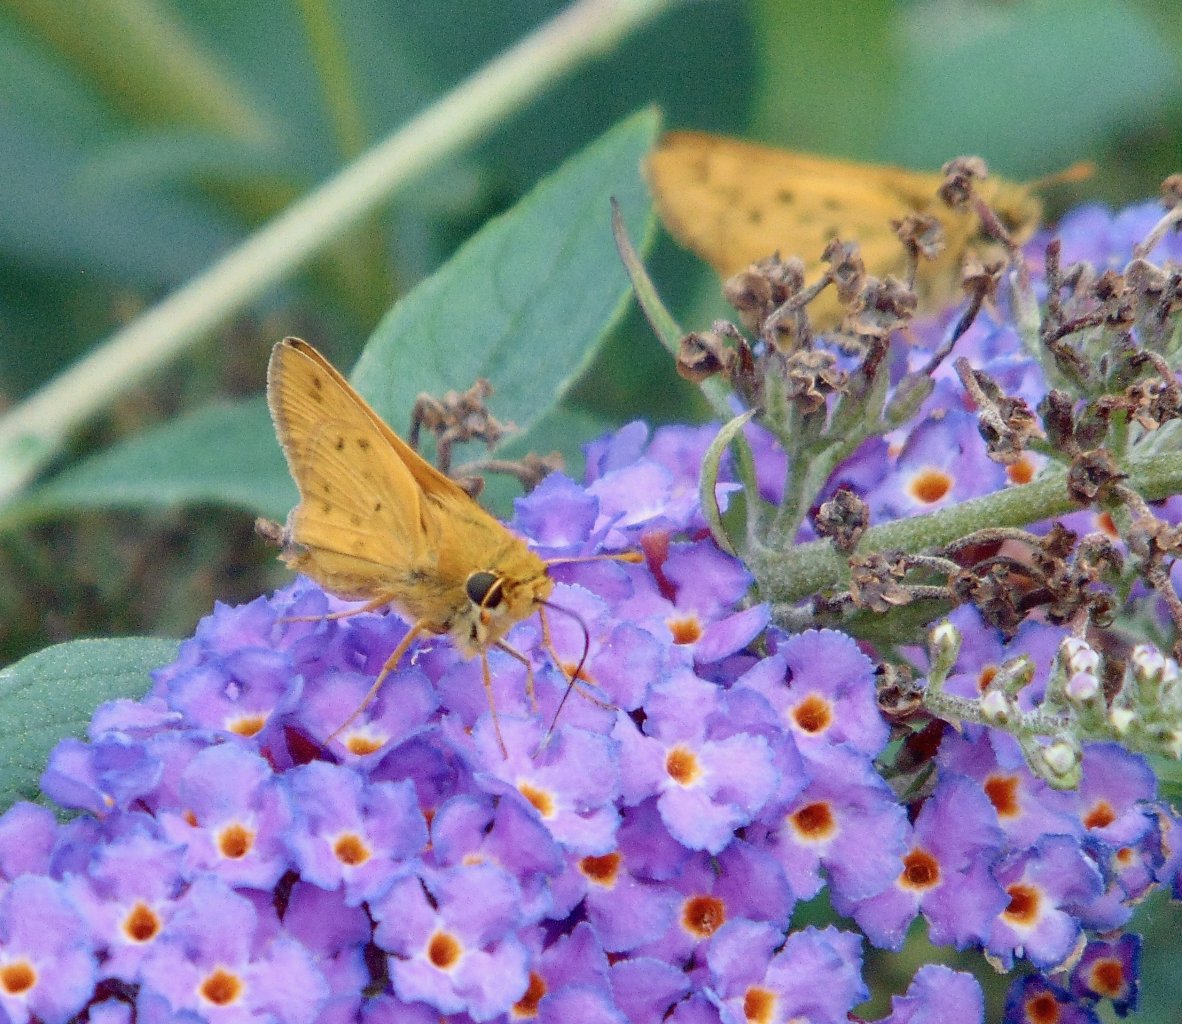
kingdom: Animalia
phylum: Arthropoda
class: Insecta
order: Lepidoptera
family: Hesperiidae
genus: Hylephila
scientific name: Hylephila phyleus
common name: Fiery Skipper
